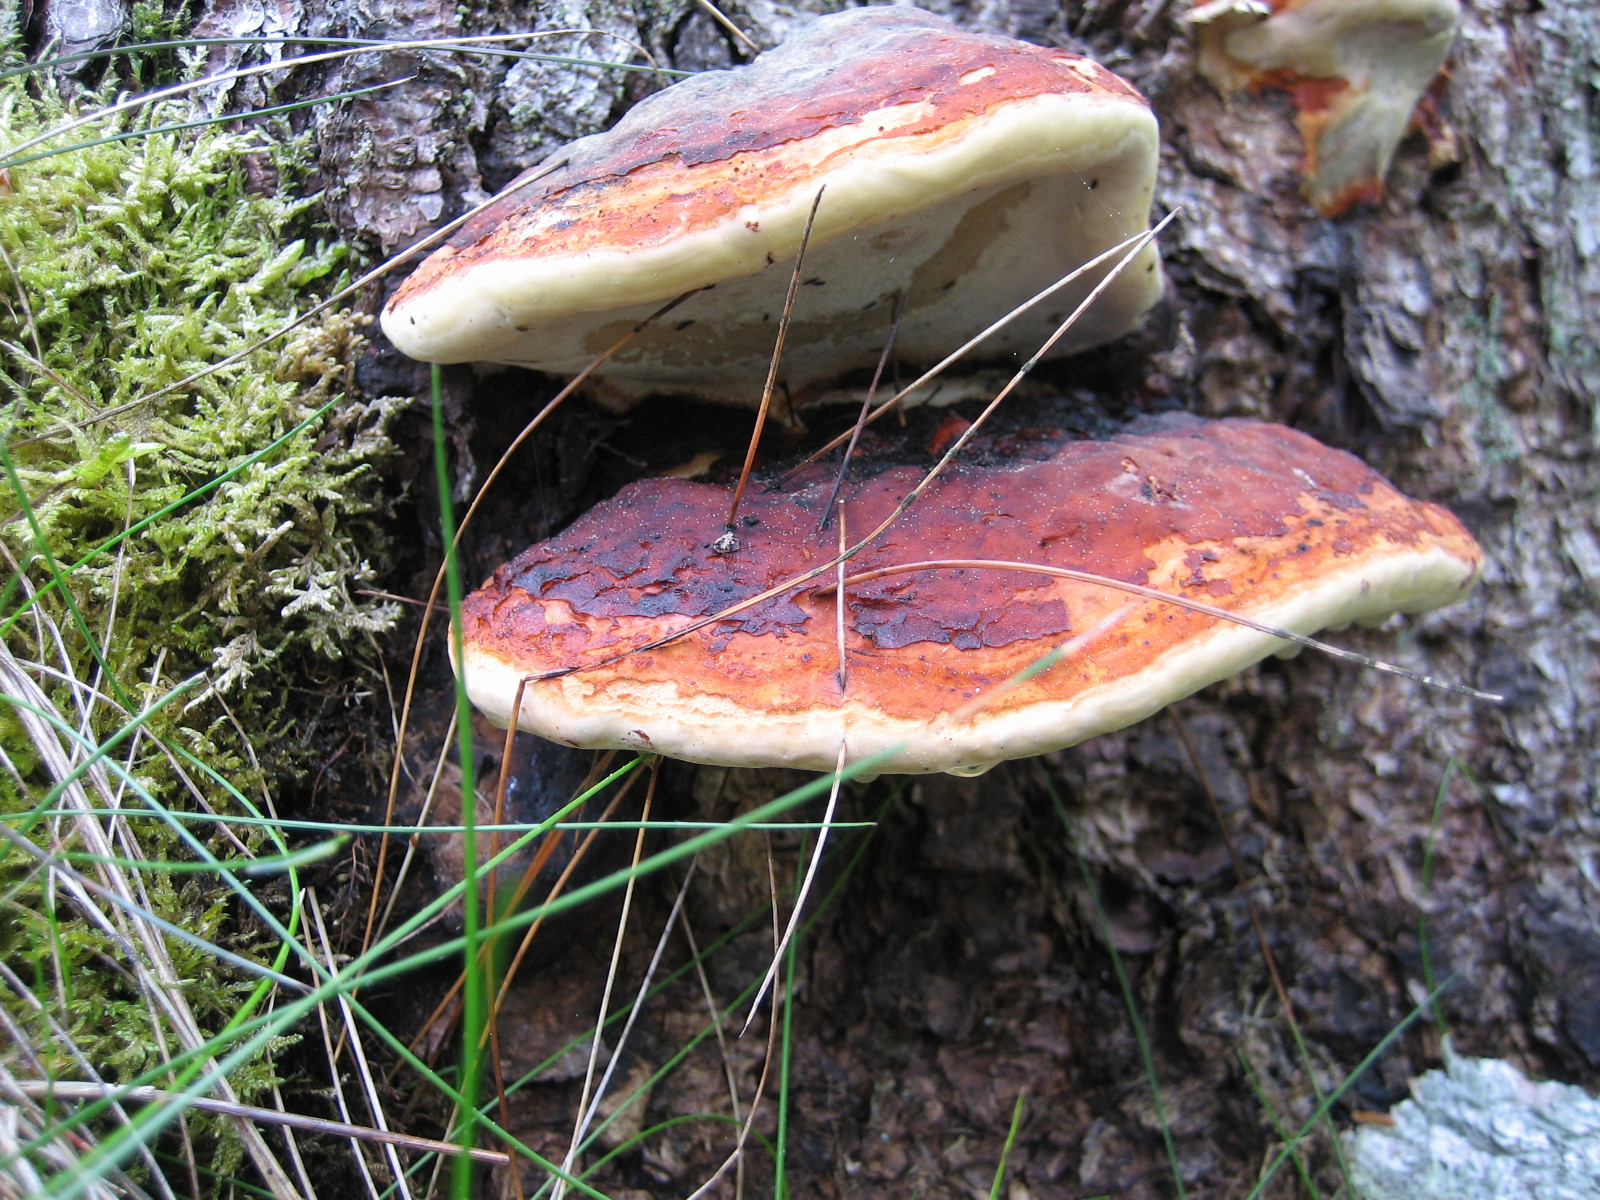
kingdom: Fungi
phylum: Basidiomycota
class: Agaricomycetes
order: Polyporales
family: Fomitopsidaceae
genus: Fomitopsis
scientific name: Fomitopsis pinicola
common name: randbæltet hovporesvamp
